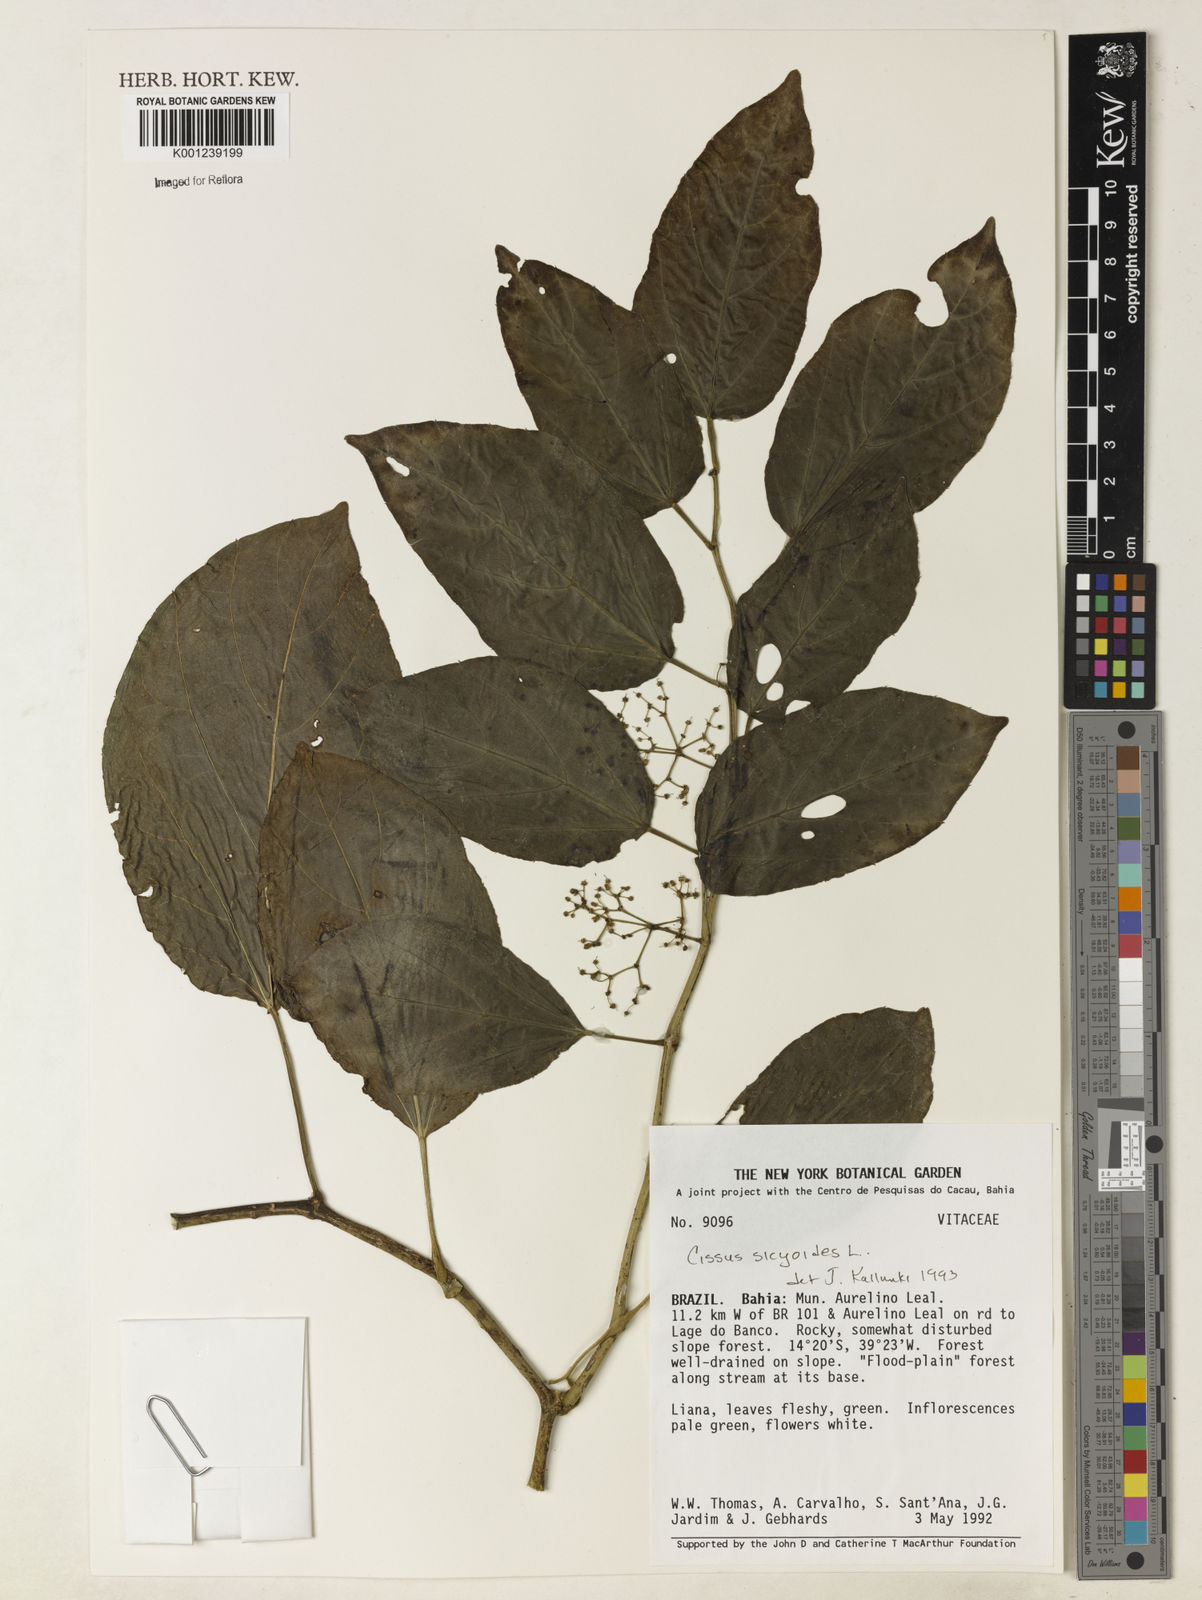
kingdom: Plantae
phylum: Tracheophyta
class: Magnoliopsida
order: Vitales
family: Vitaceae
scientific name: Vitaceae
